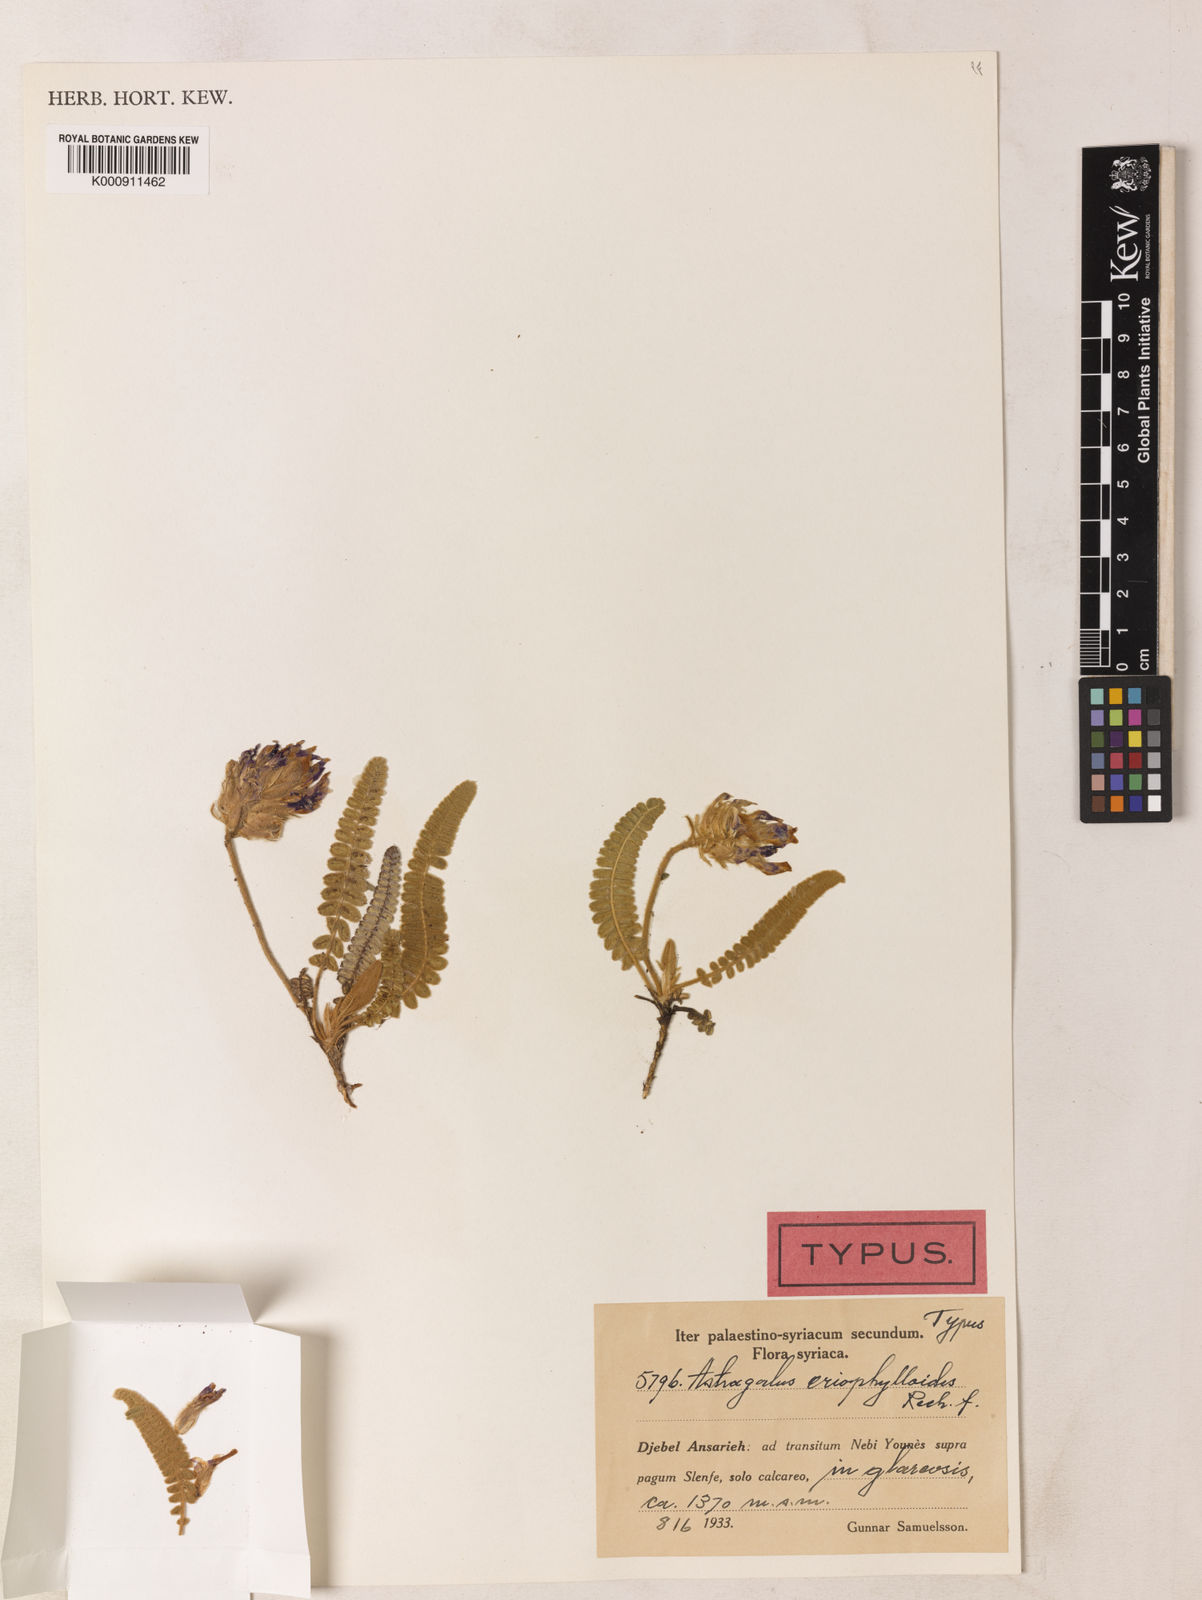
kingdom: Plantae
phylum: Tracheophyta
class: Magnoliopsida
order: Fabales
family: Fabaceae
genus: Astragalus
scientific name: Astragalus eriophylloides
